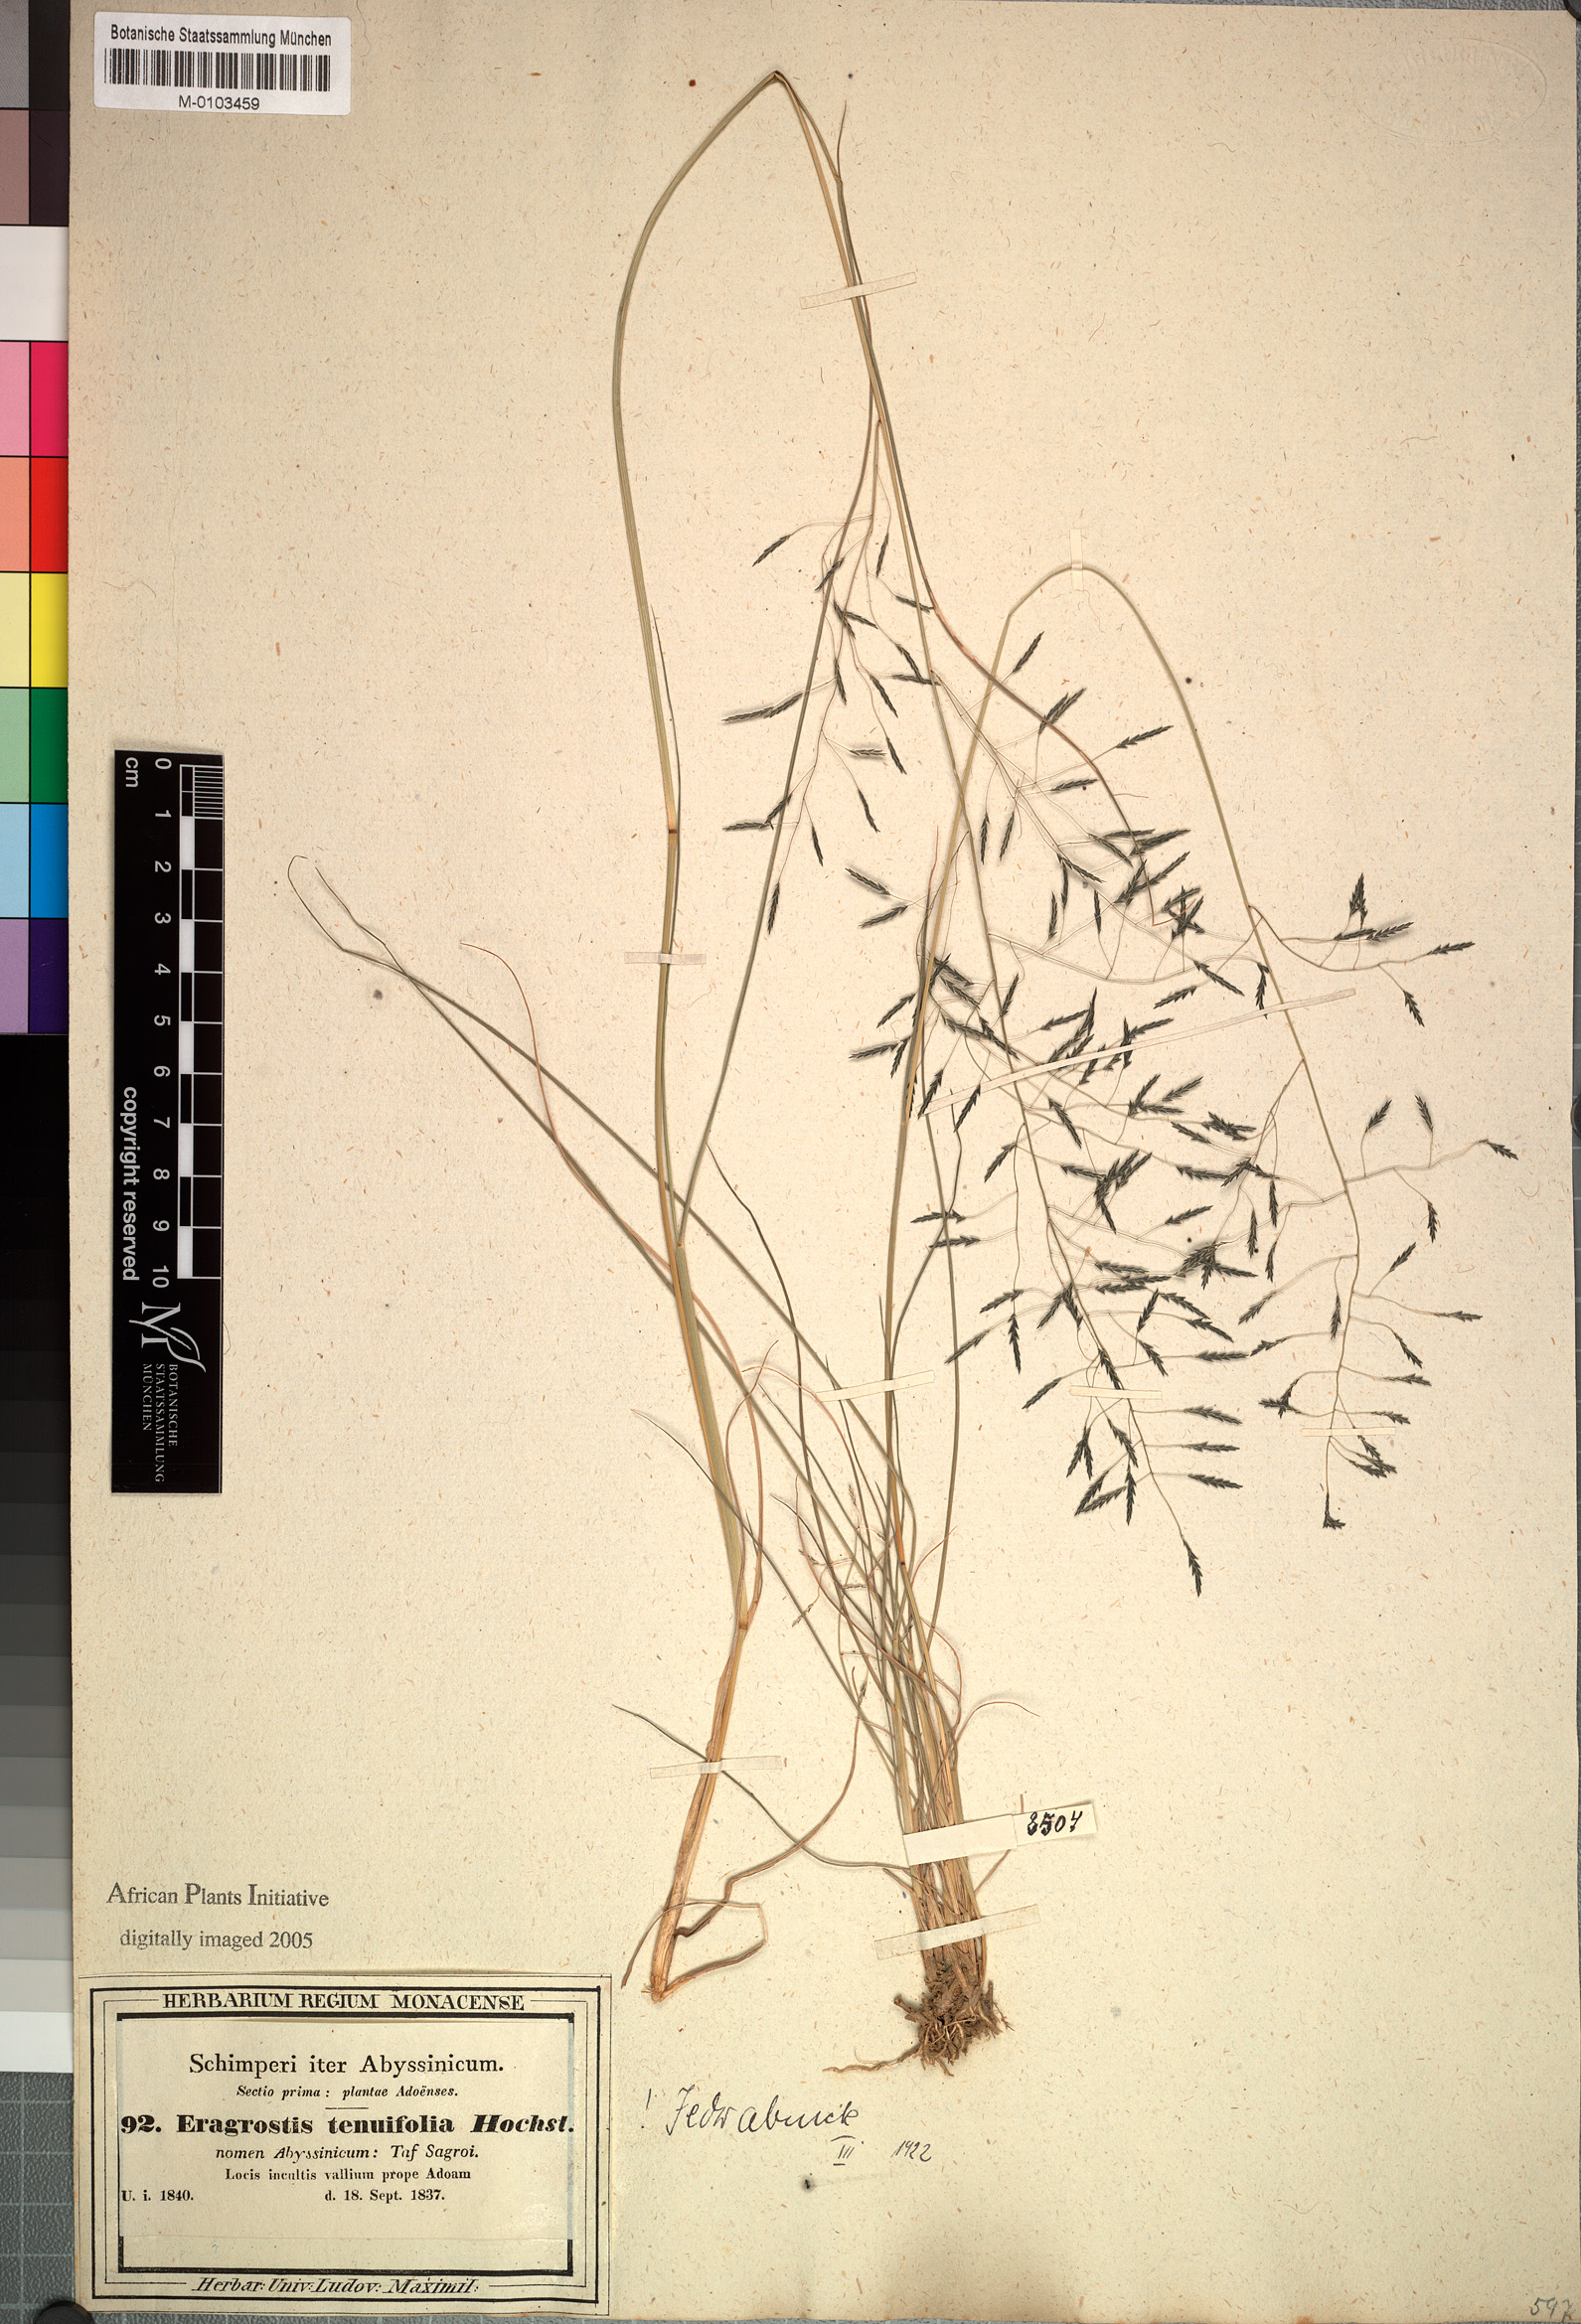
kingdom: Plantae
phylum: Tracheophyta
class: Liliopsida
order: Poales
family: Poaceae
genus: Eragrostis
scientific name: Eragrostis tenuifolia
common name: Elastic grass
